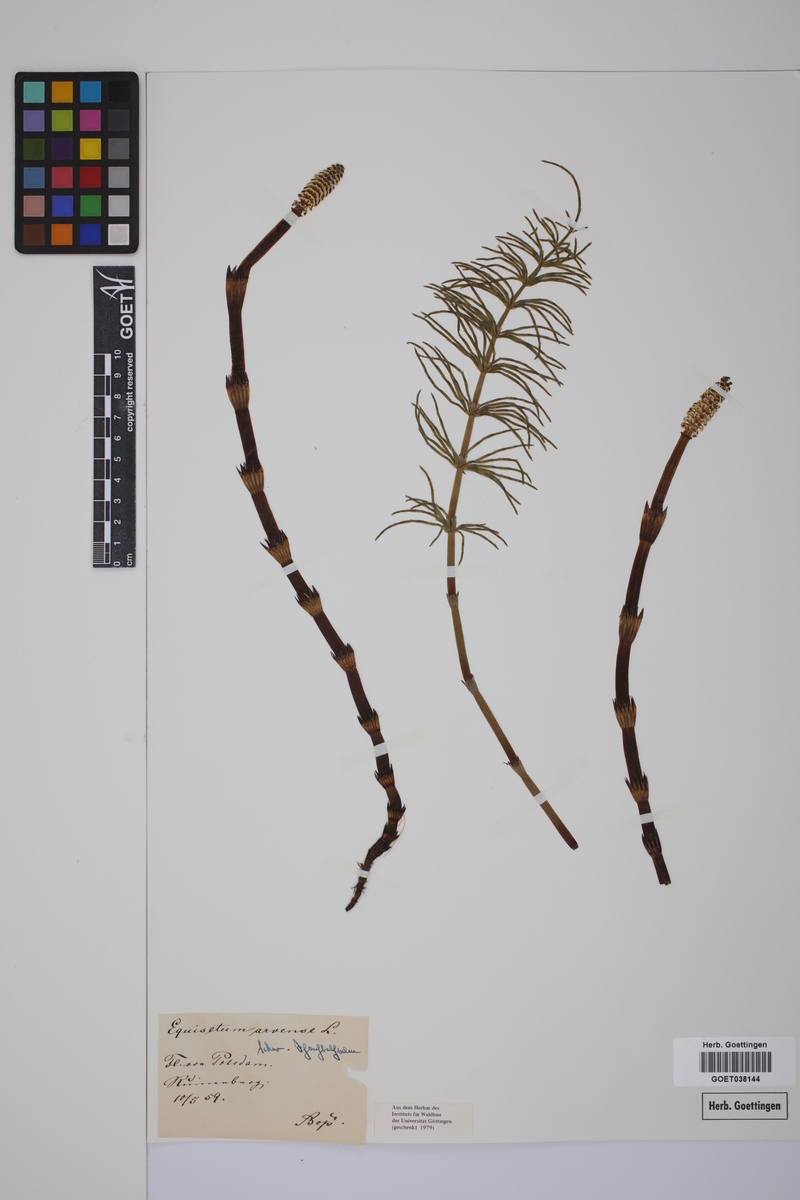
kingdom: Plantae
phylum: Tracheophyta
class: Polypodiopsida
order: Equisetales
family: Equisetaceae
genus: Equisetum
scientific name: Equisetum arvense
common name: Field horsetail
